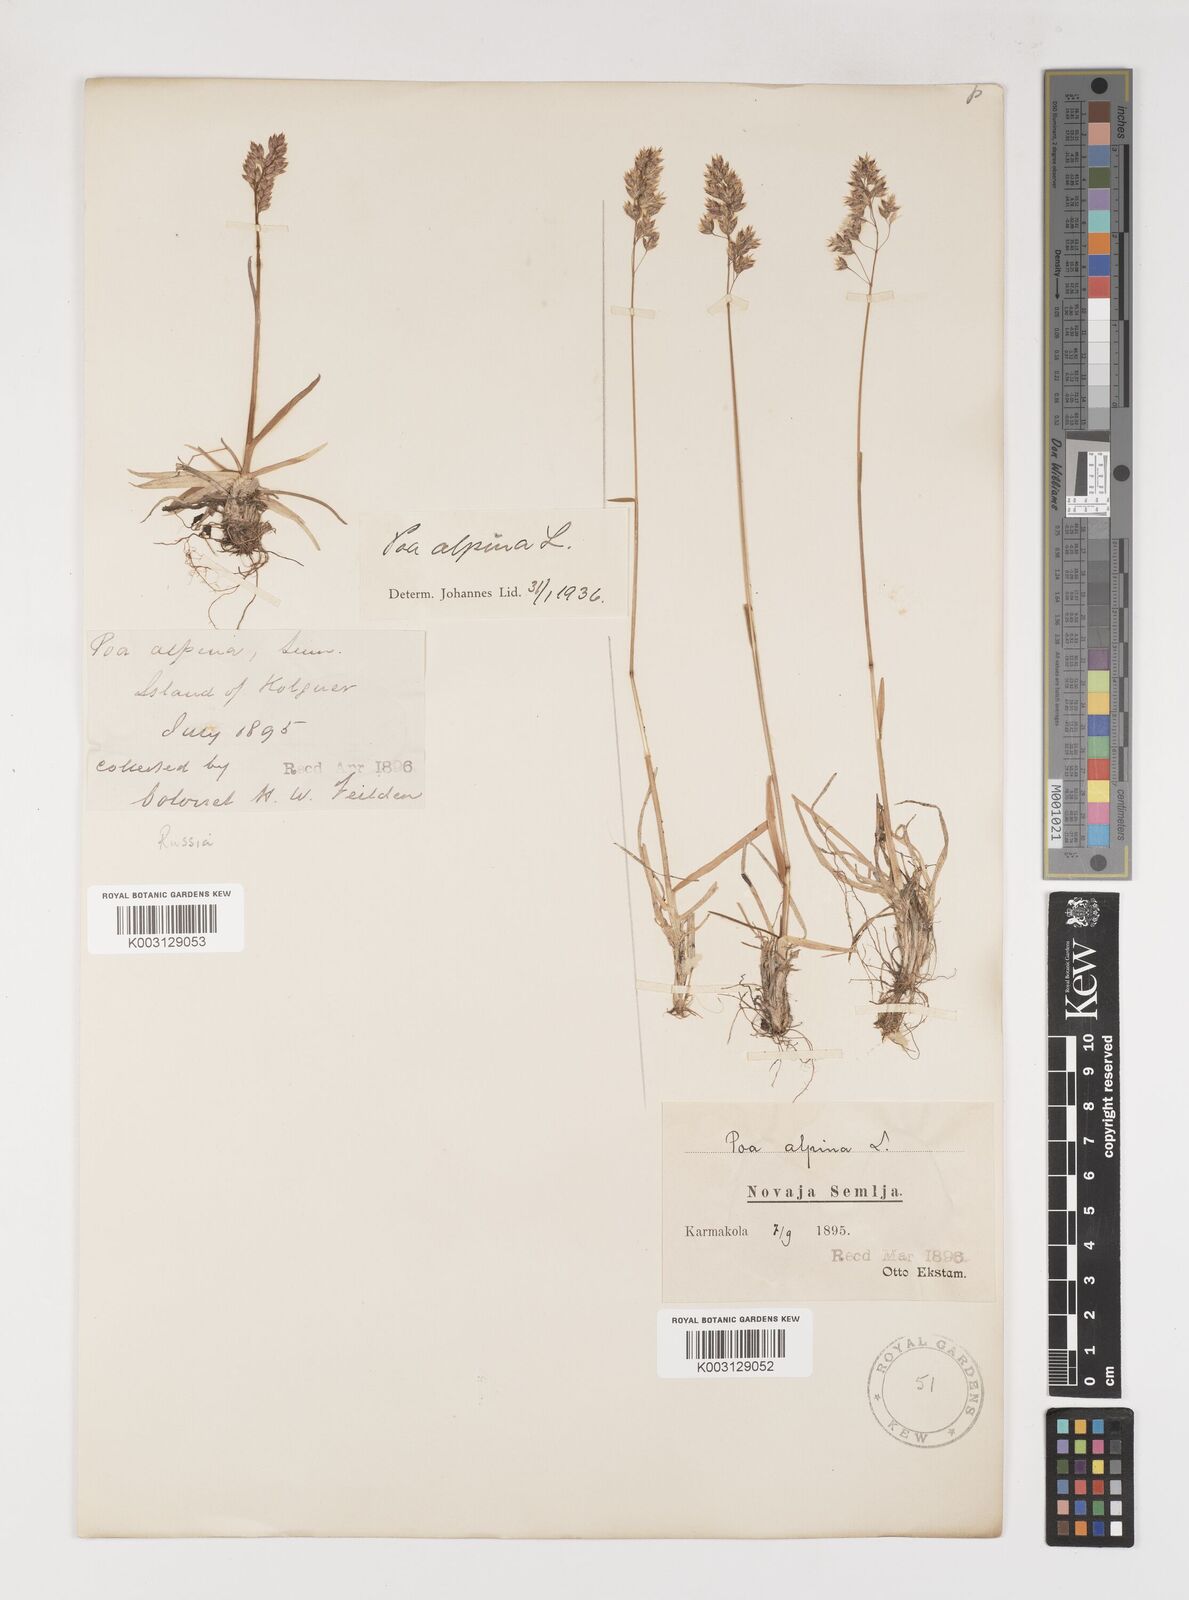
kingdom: Plantae
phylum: Tracheophyta
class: Liliopsida
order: Poales
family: Poaceae
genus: Poa
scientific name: Poa alpina
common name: Alpine bluegrass
